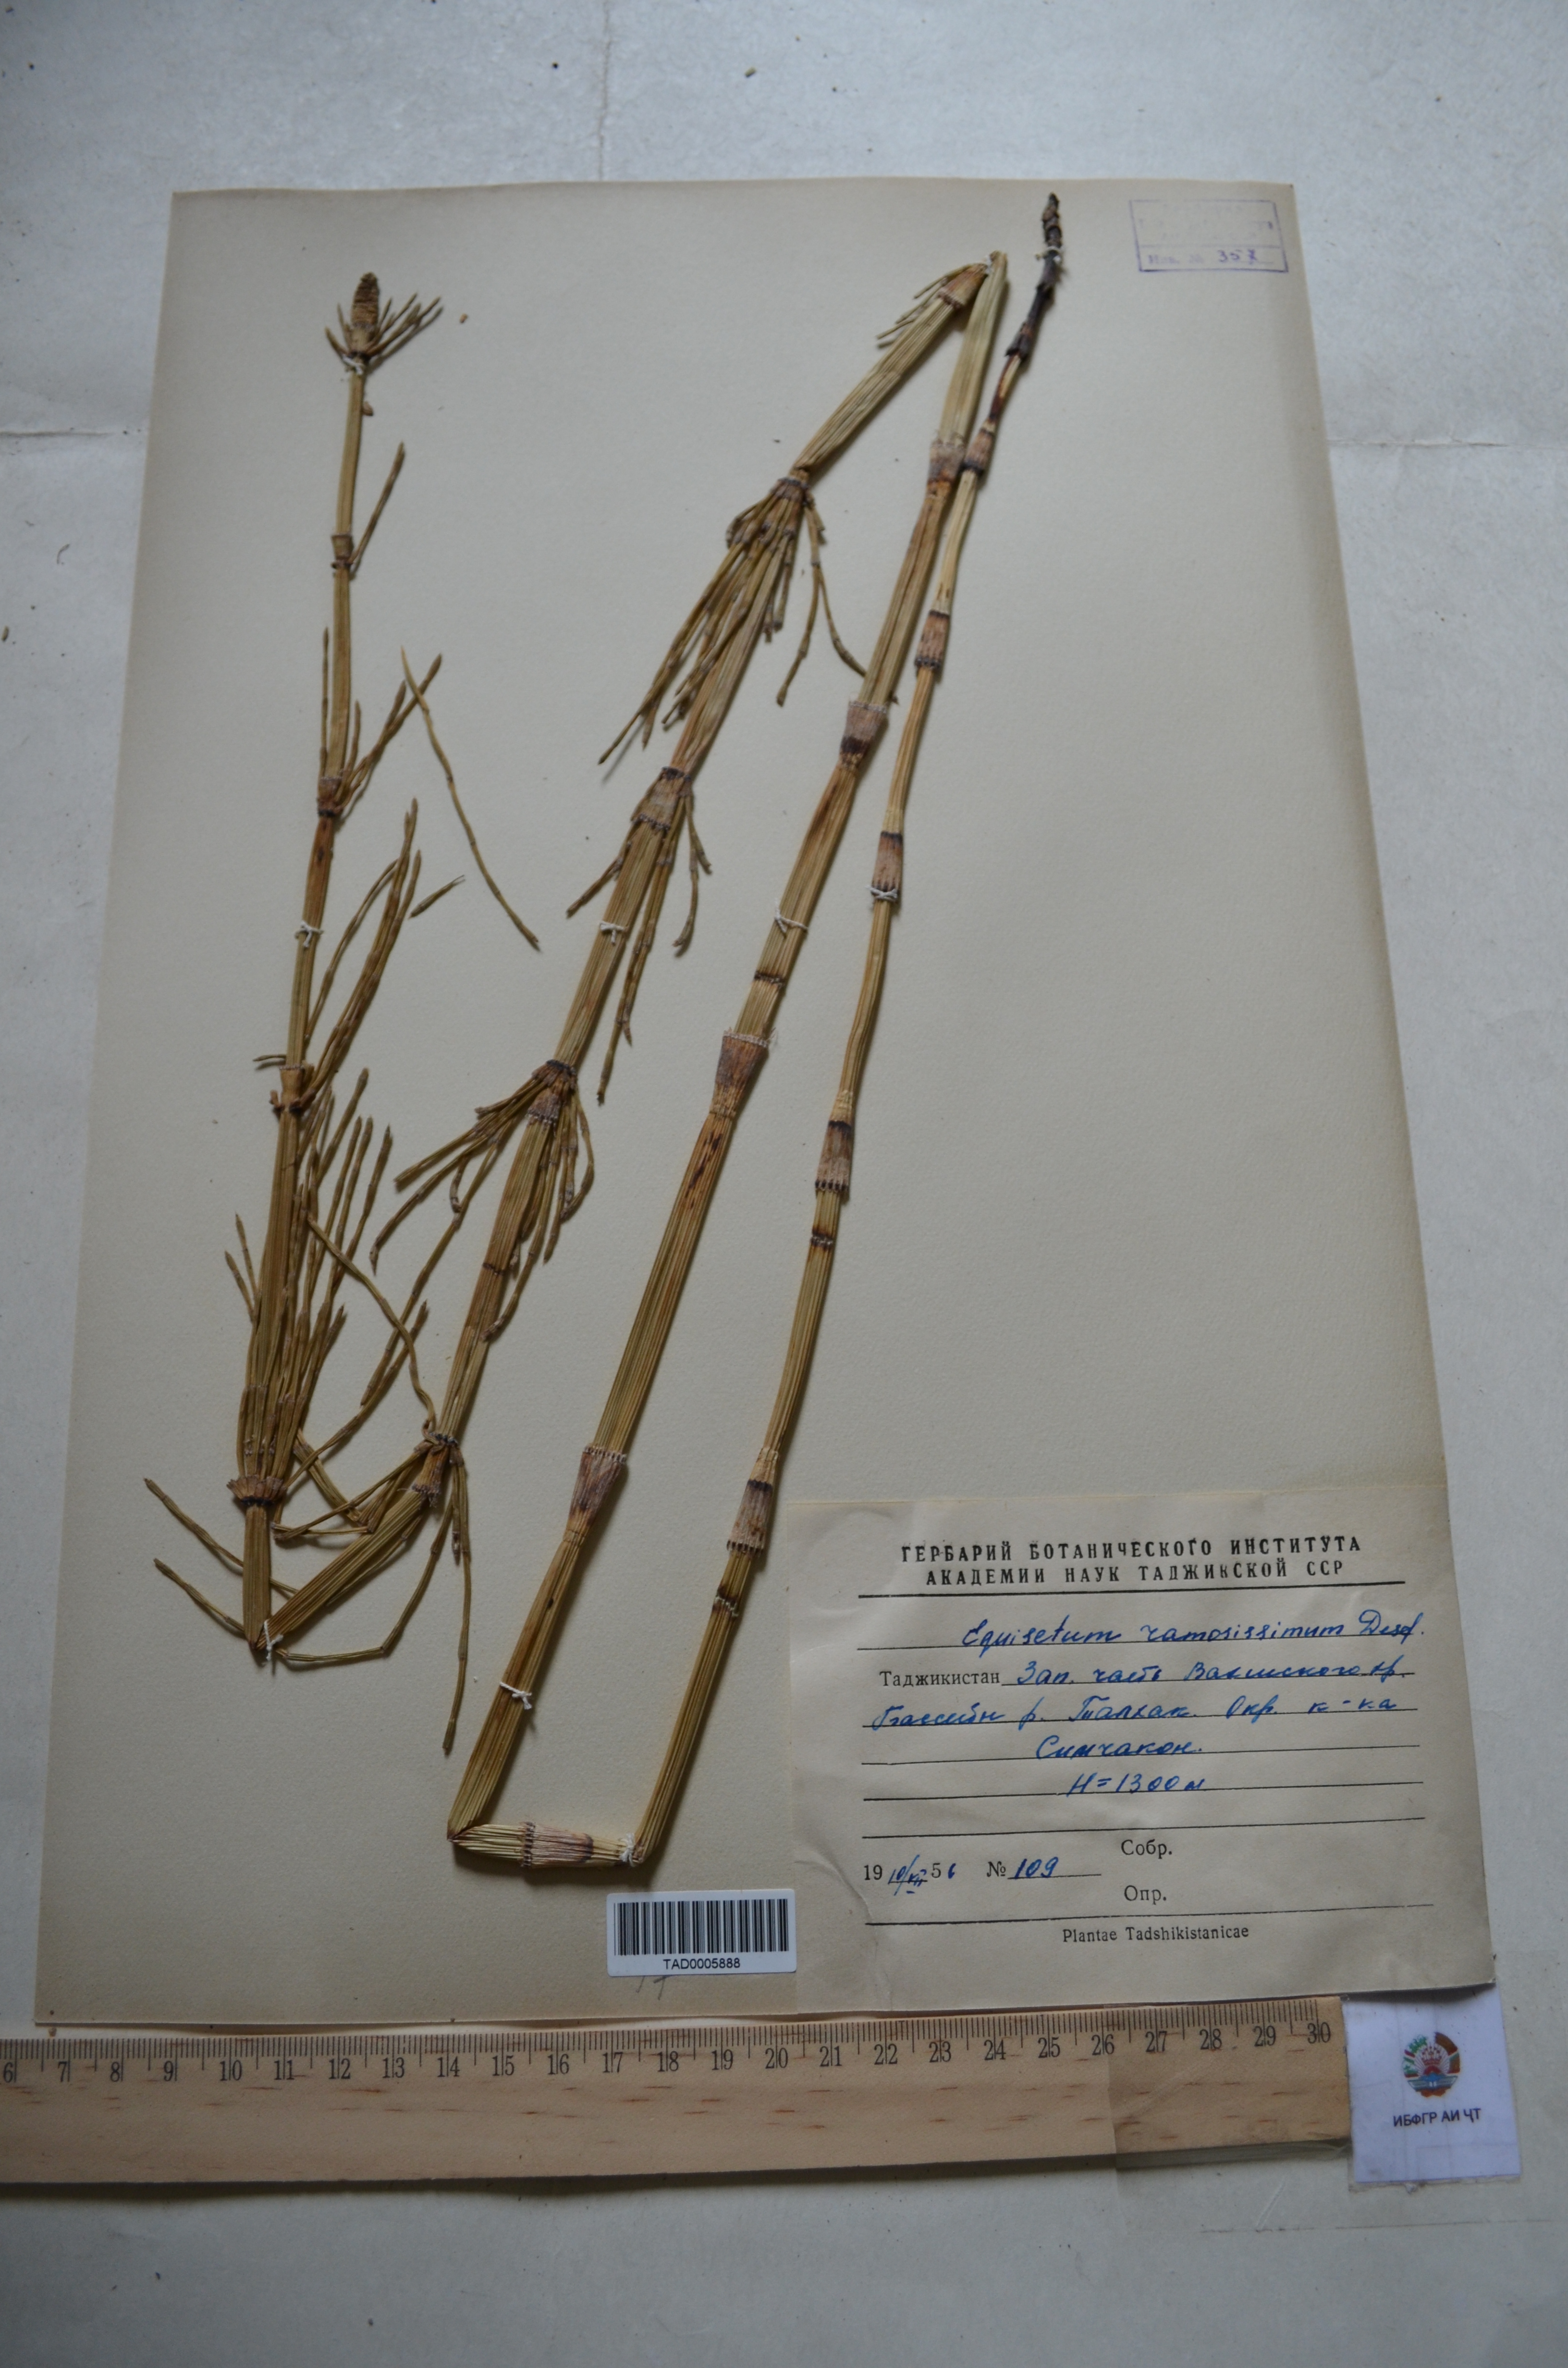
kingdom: Plantae
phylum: Tracheophyta
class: Polypodiopsida
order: Equisetales
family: Equisetaceae
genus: Equisetum
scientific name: Equisetum ramosissimum
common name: Branched horsetail
